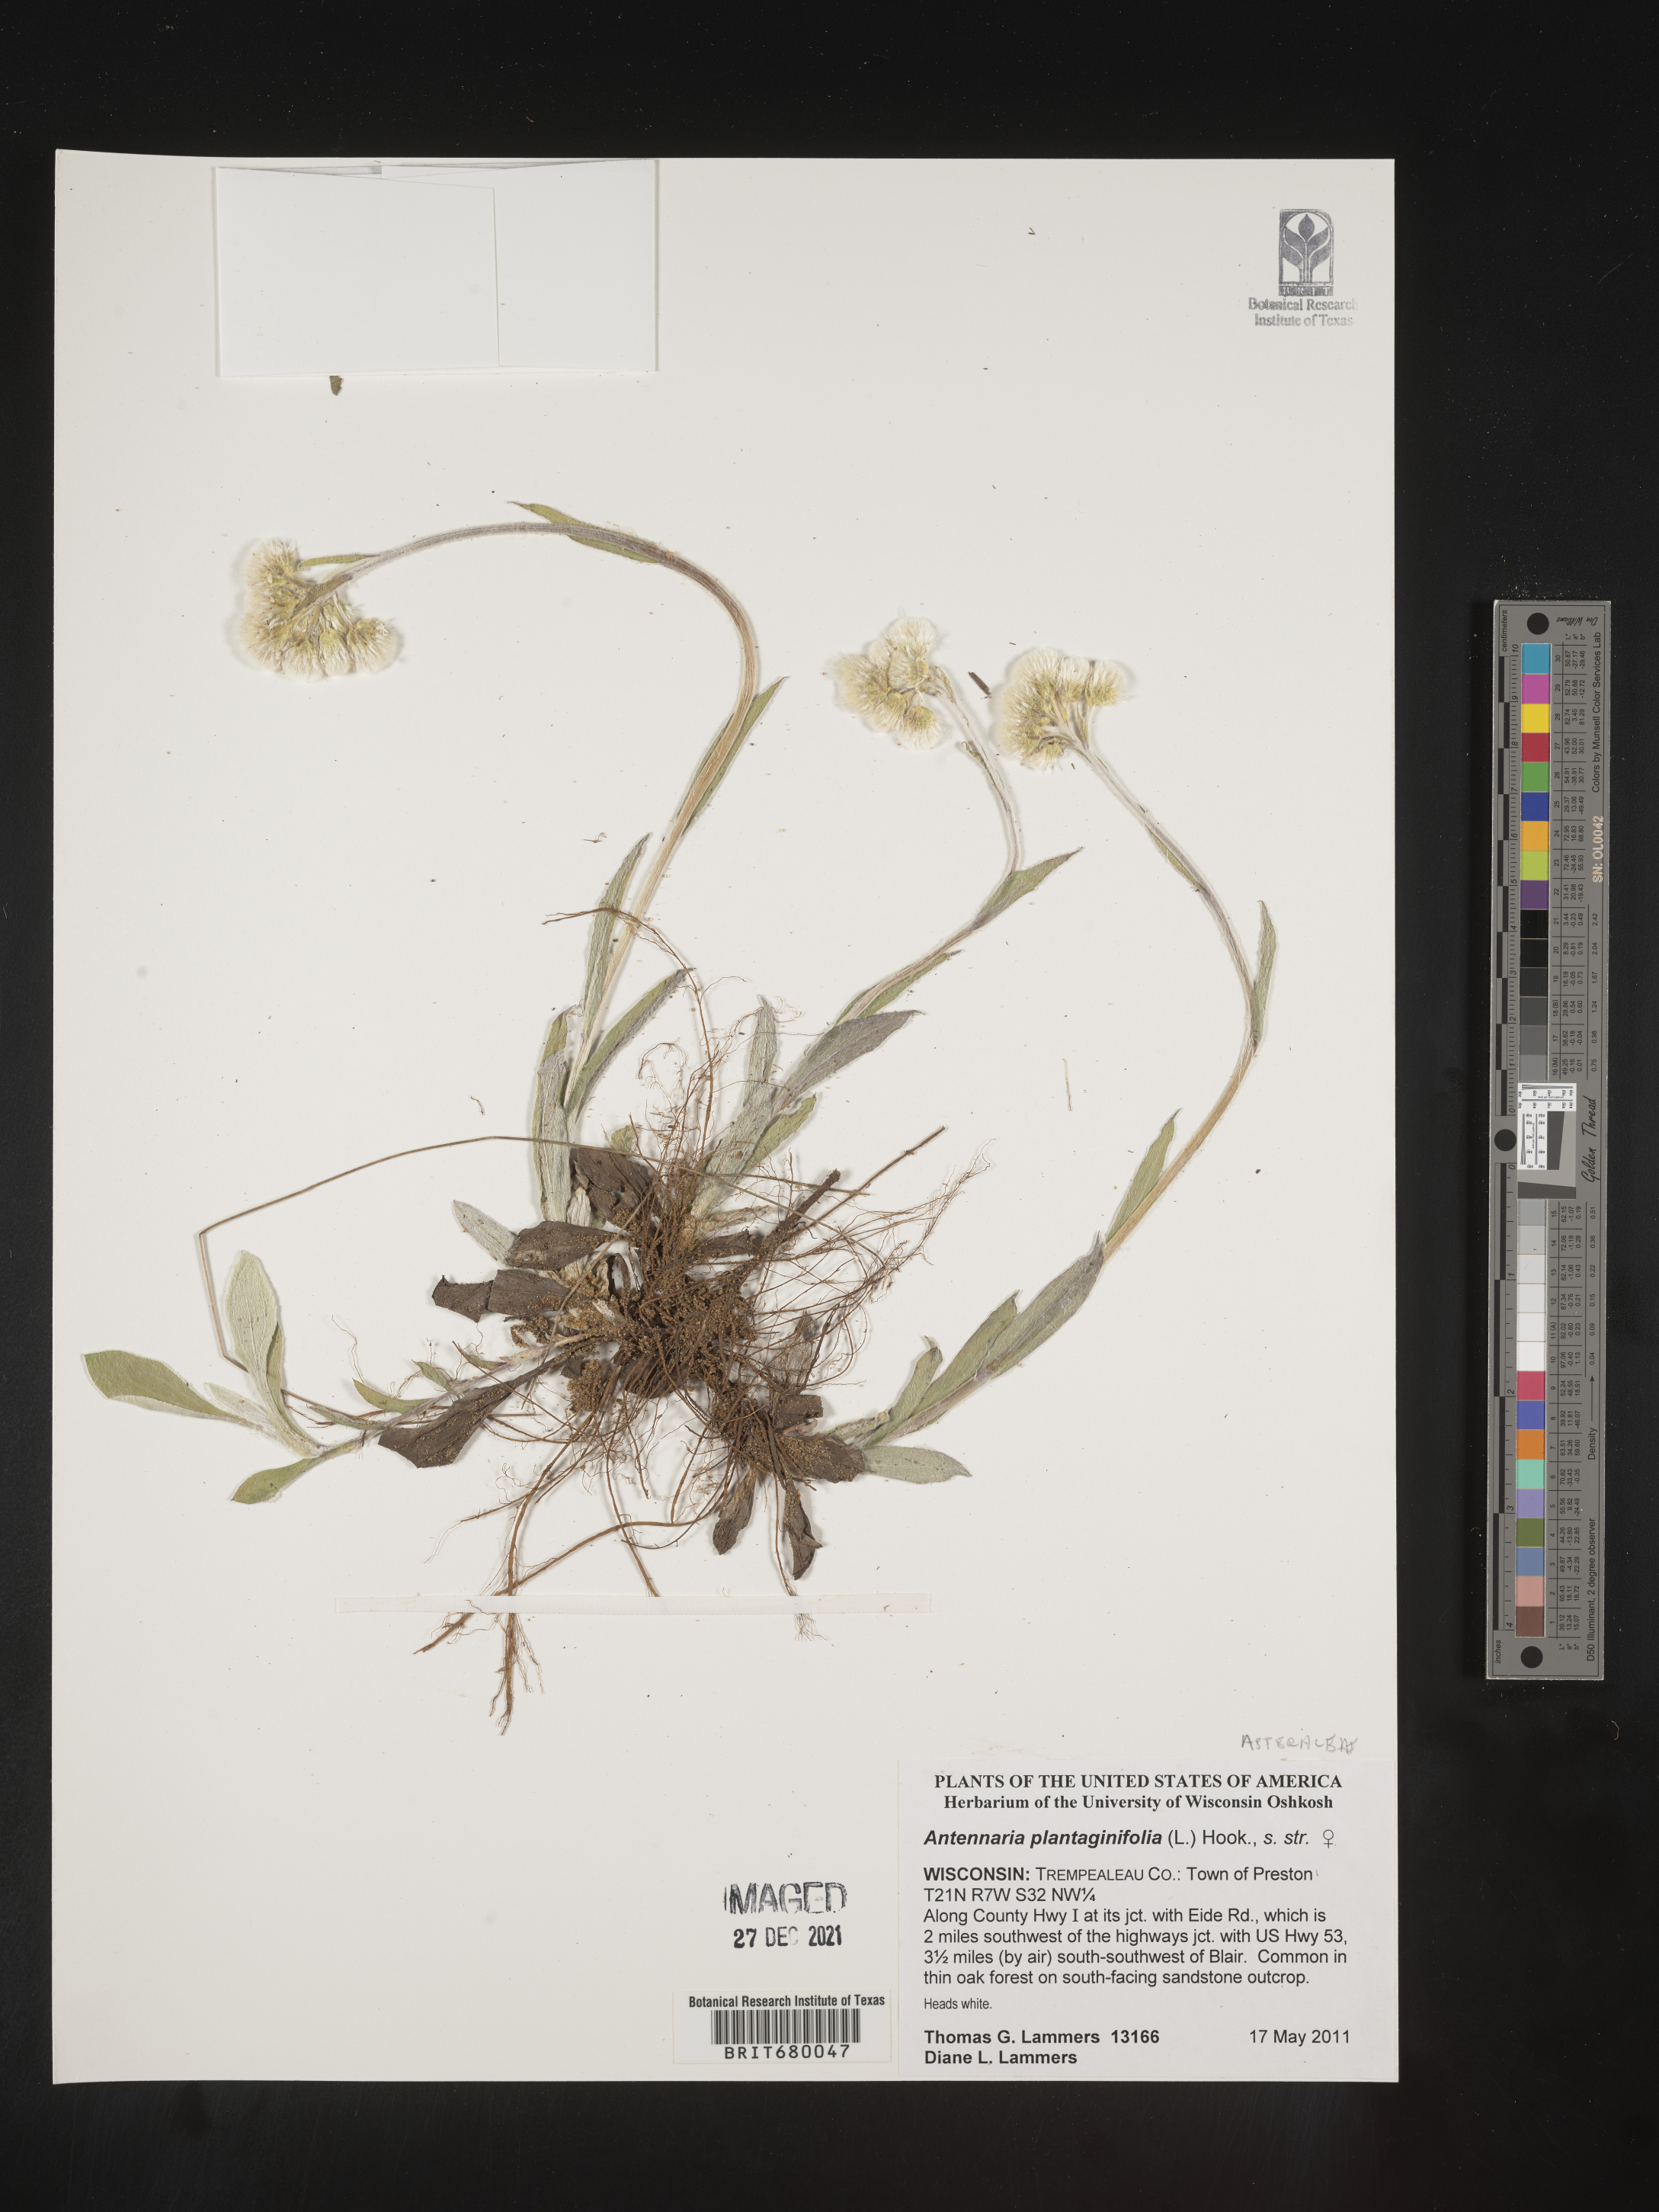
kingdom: Plantae
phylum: Tracheophyta
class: Magnoliopsida
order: Asterales
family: Asteraceae
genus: Antennaria
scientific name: Antennaria plantaginifolia
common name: Plantain-leaved pussytoes
